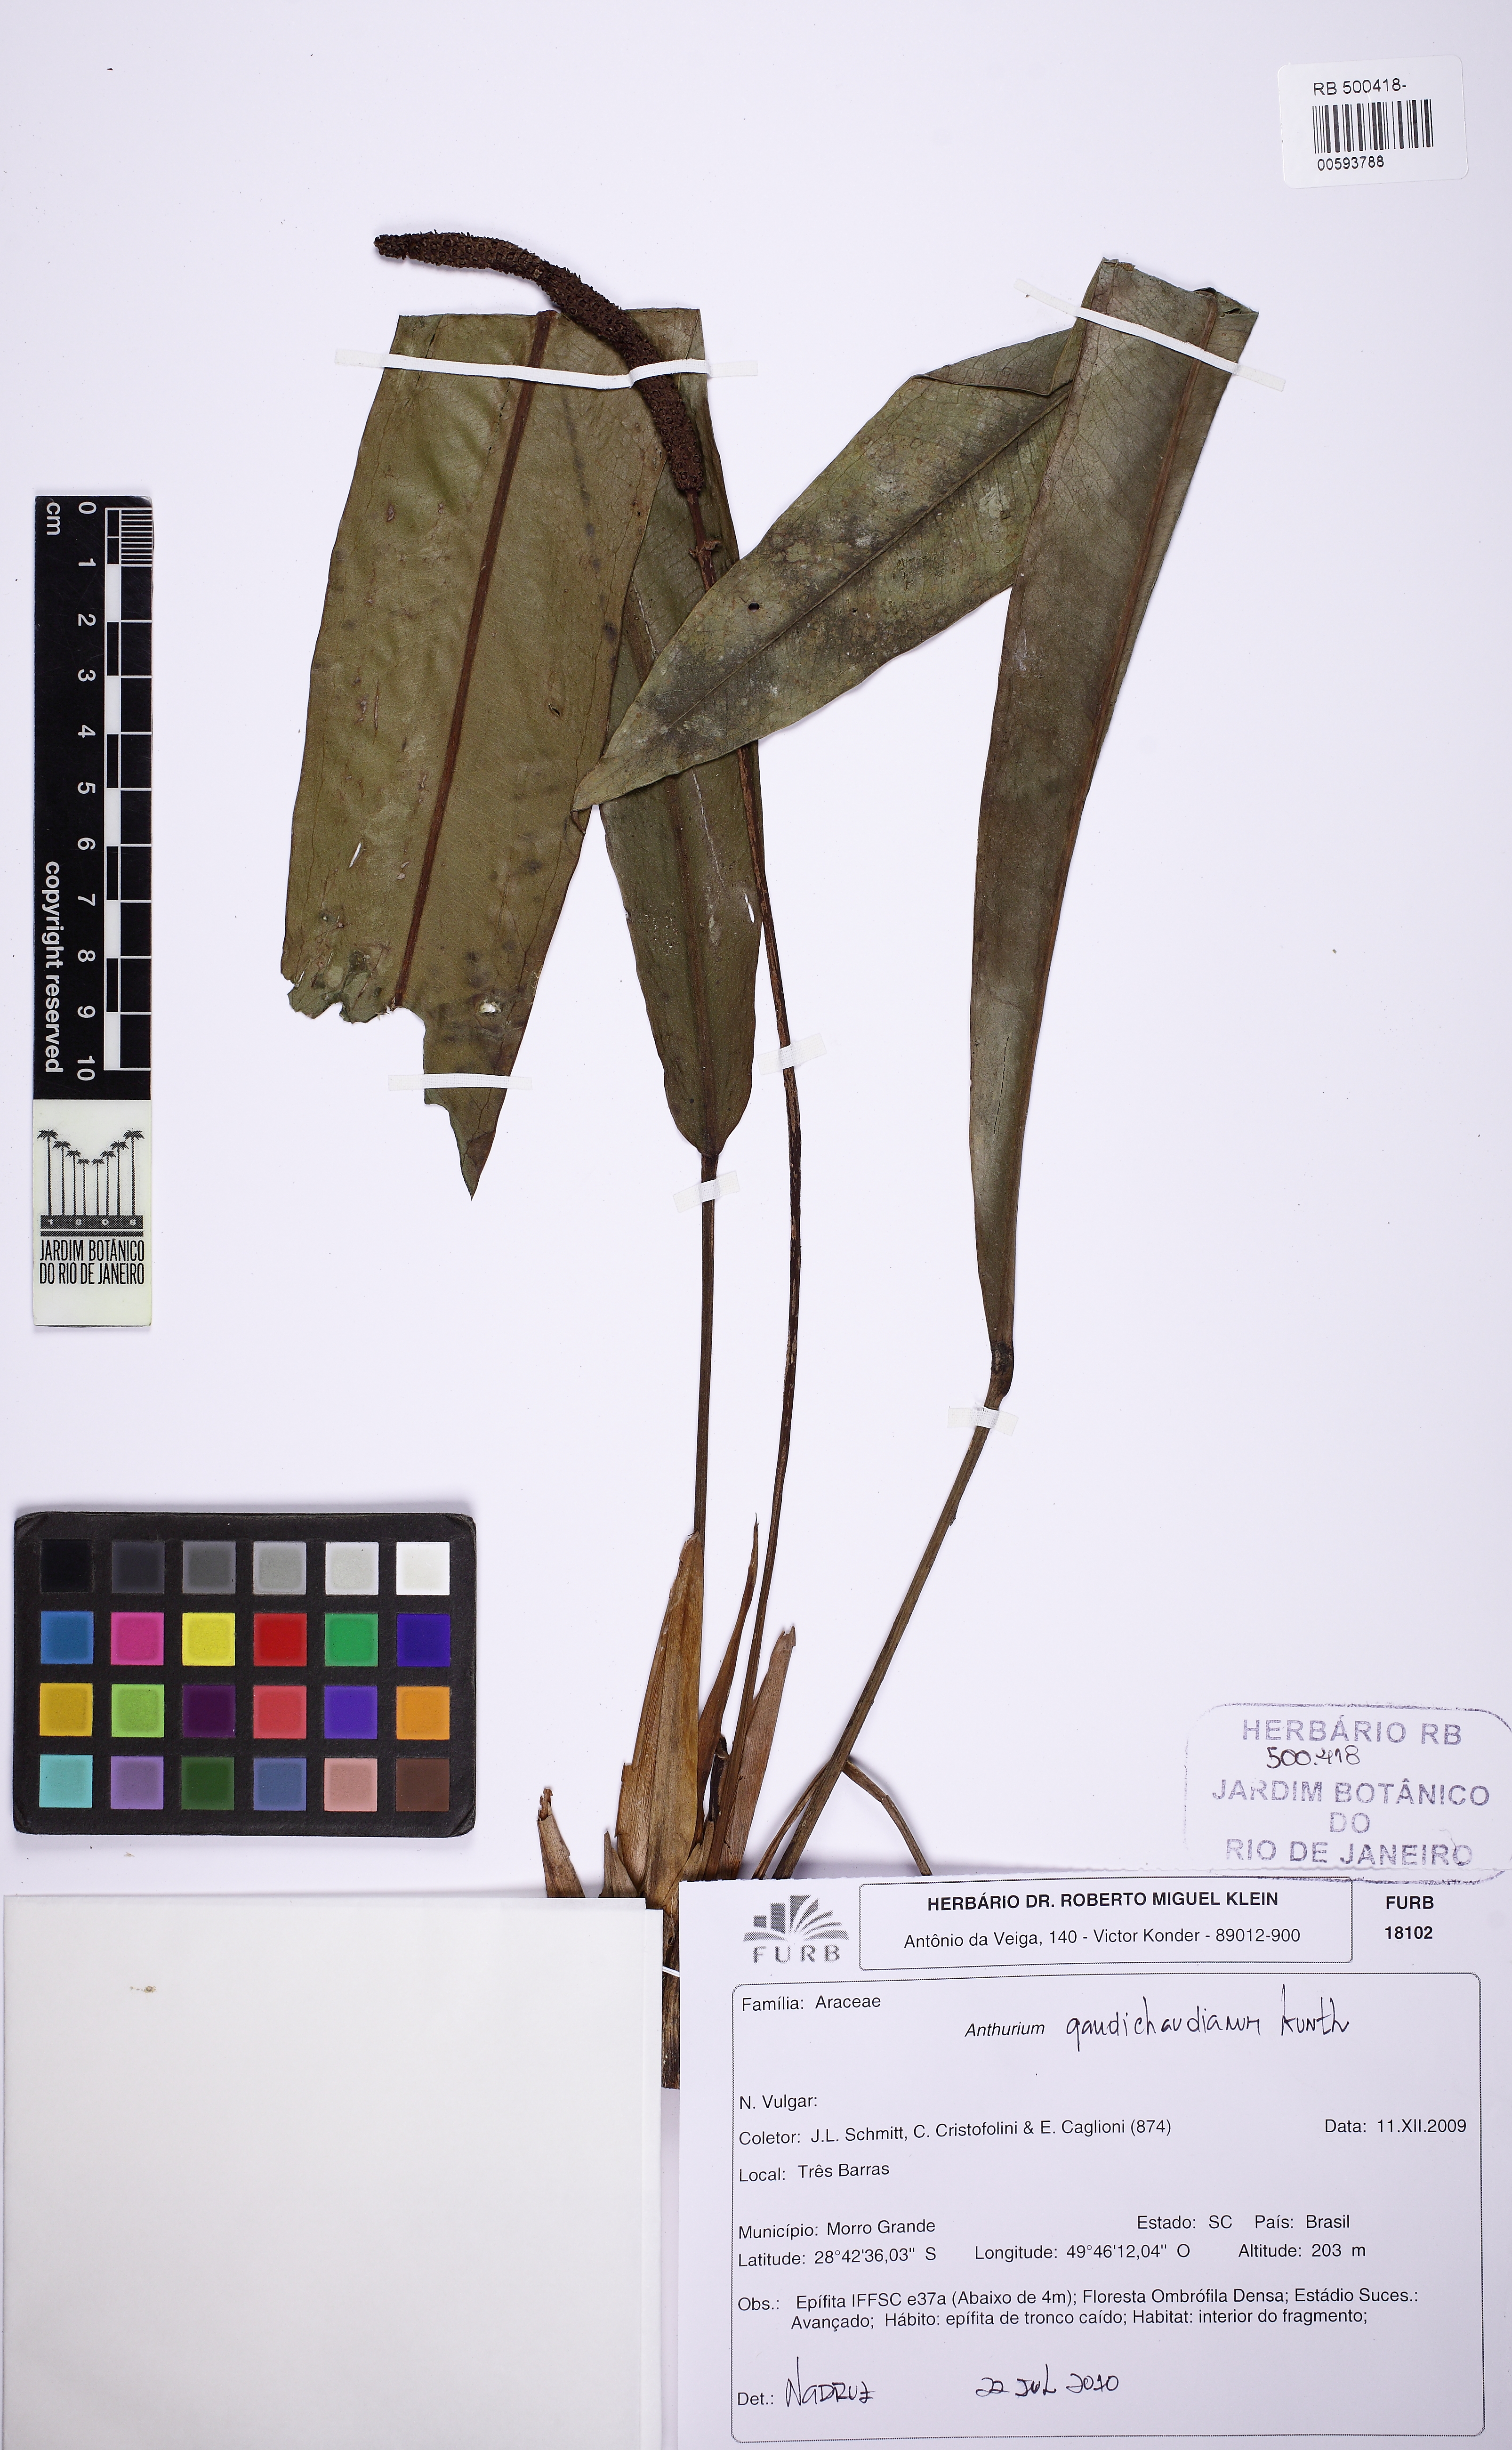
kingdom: Plantae
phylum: Tracheophyta
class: Liliopsida
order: Alismatales
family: Araceae
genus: Anthurium
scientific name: Anthurium gaudichaudianum
